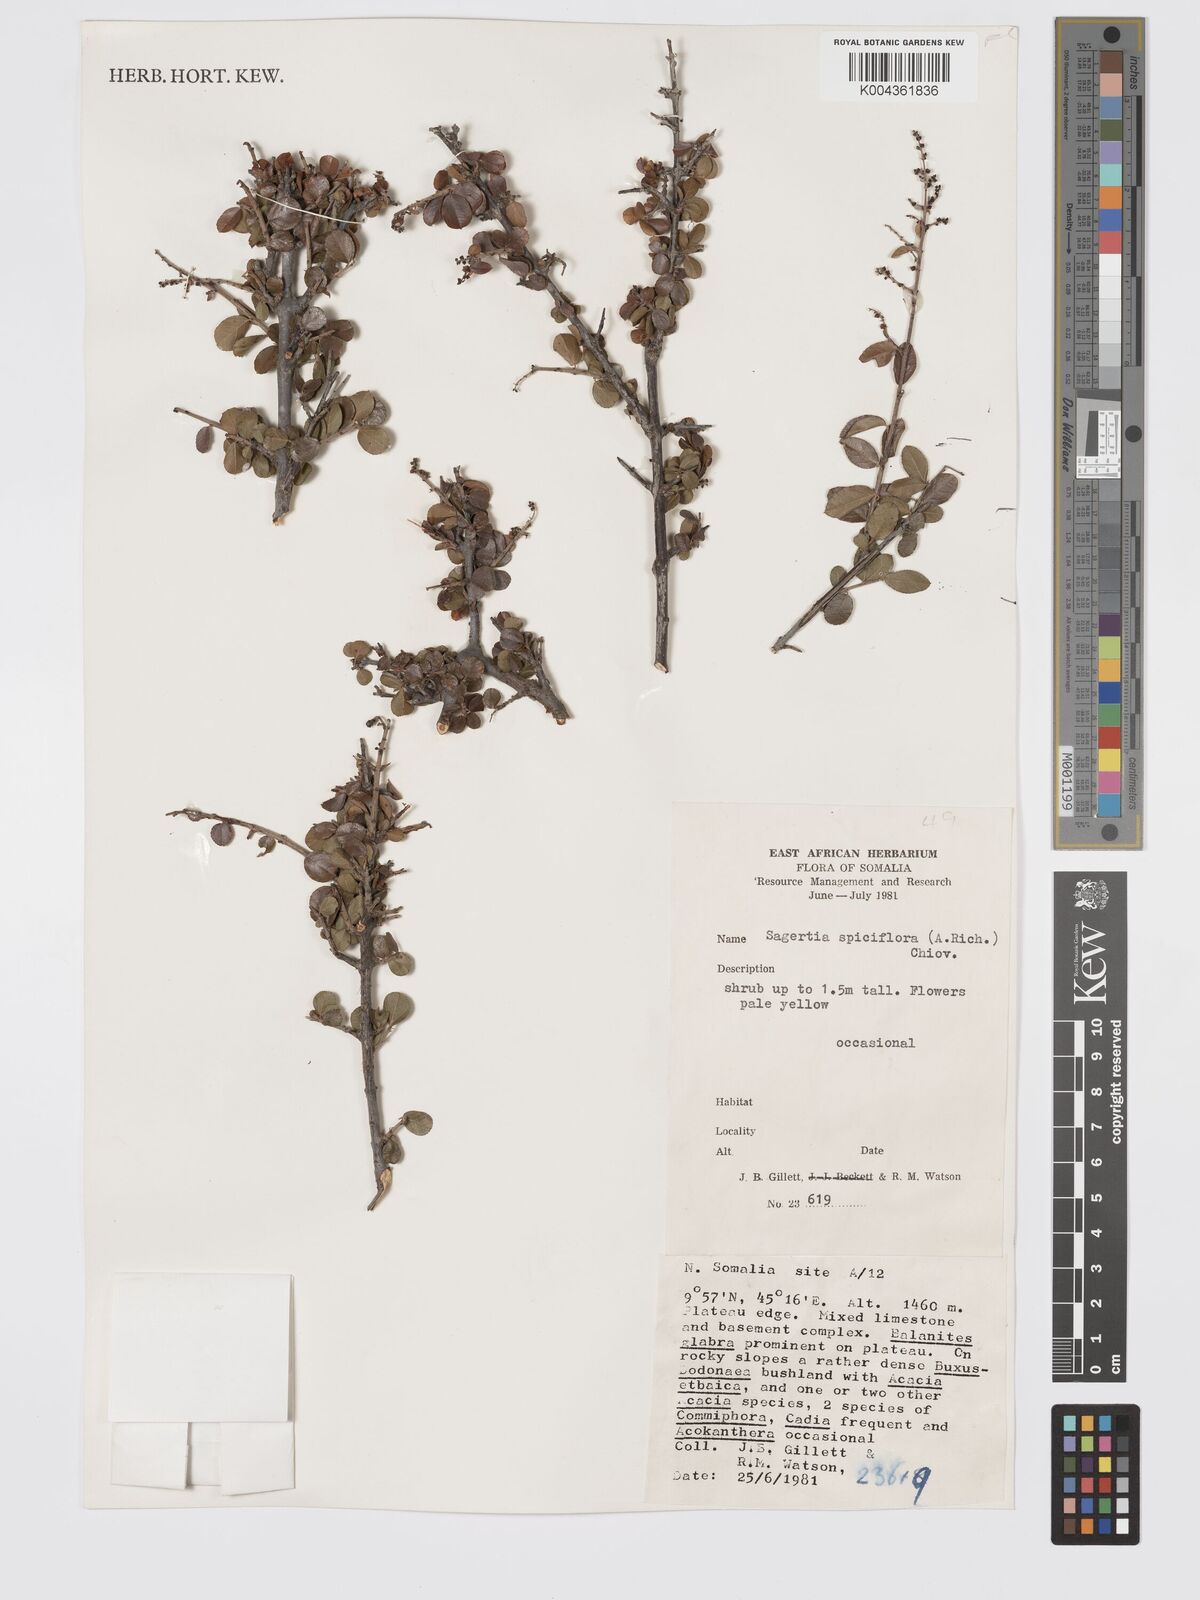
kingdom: Plantae
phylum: Tracheophyta
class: Magnoliopsida
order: Rosales
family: Rhamnaceae
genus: Sageretia
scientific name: Sageretia thea
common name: Pauper's-tea
